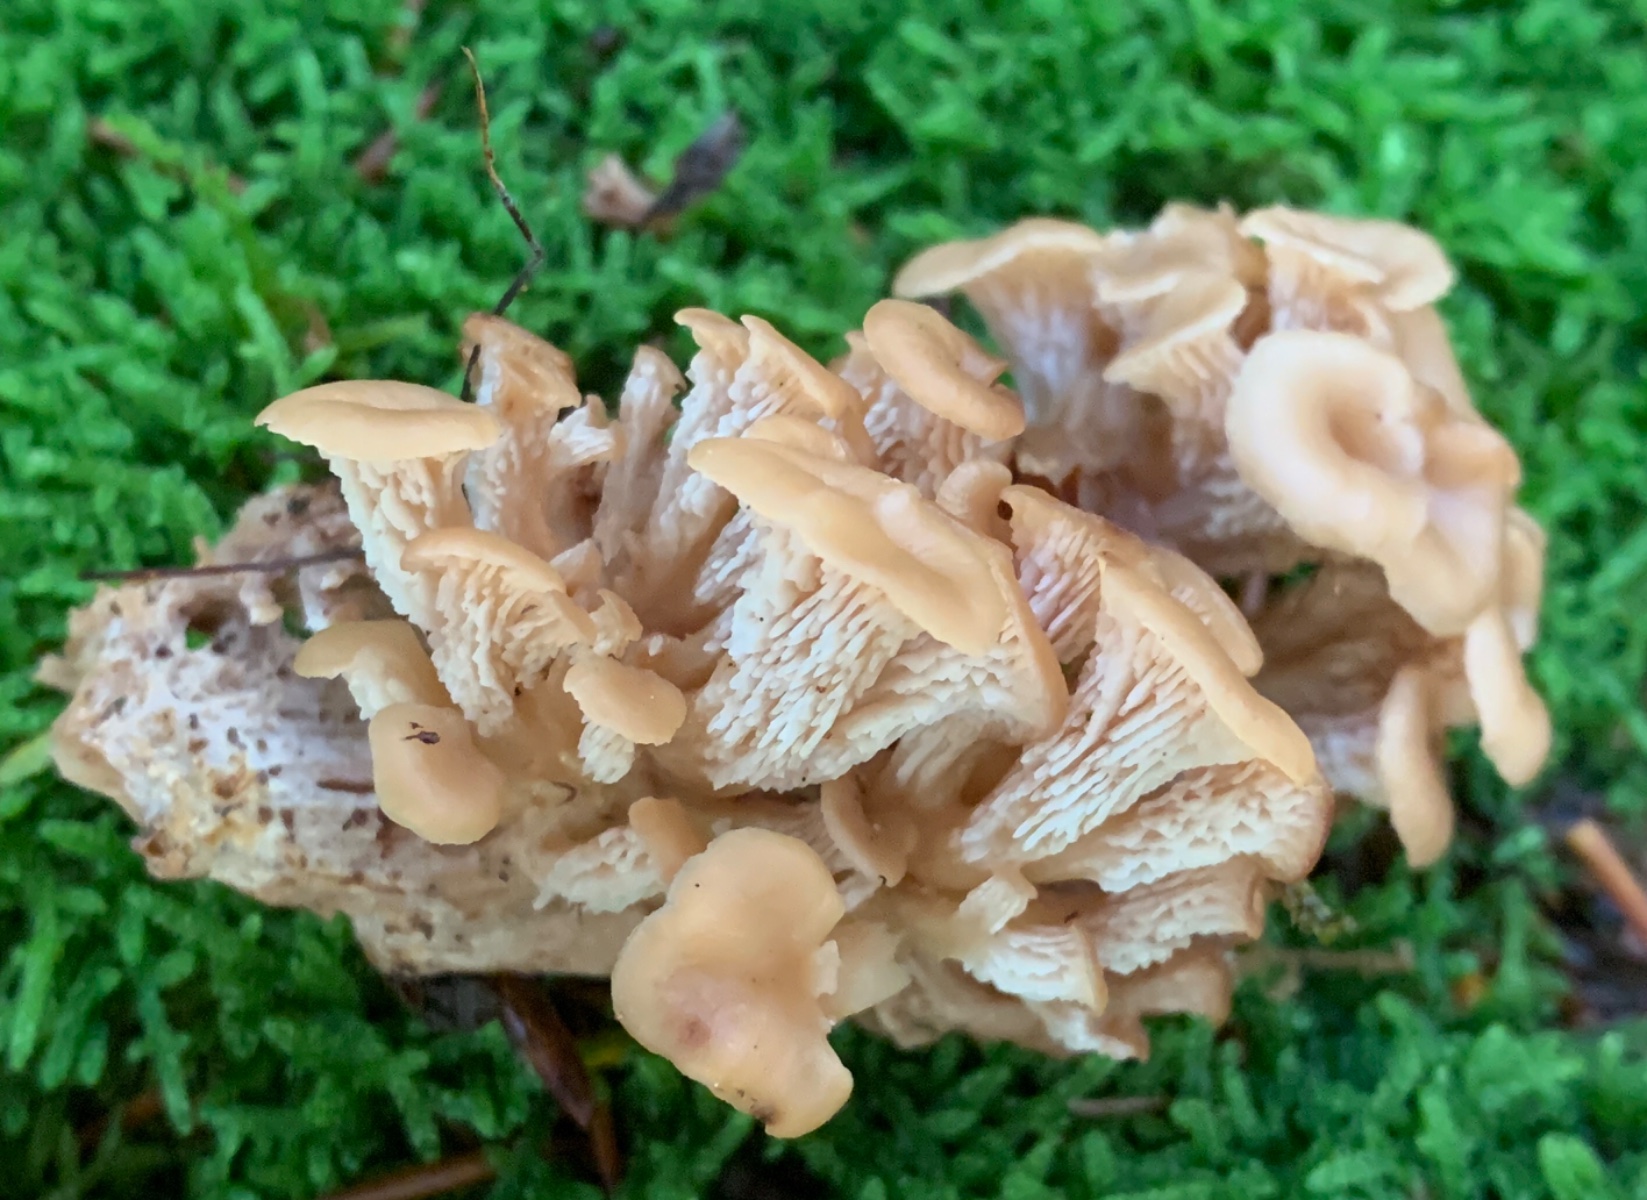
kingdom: Fungi
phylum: Basidiomycota
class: Agaricomycetes
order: Russulales
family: Auriscalpiaceae
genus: Lentinellus
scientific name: Lentinellus cochleatus
